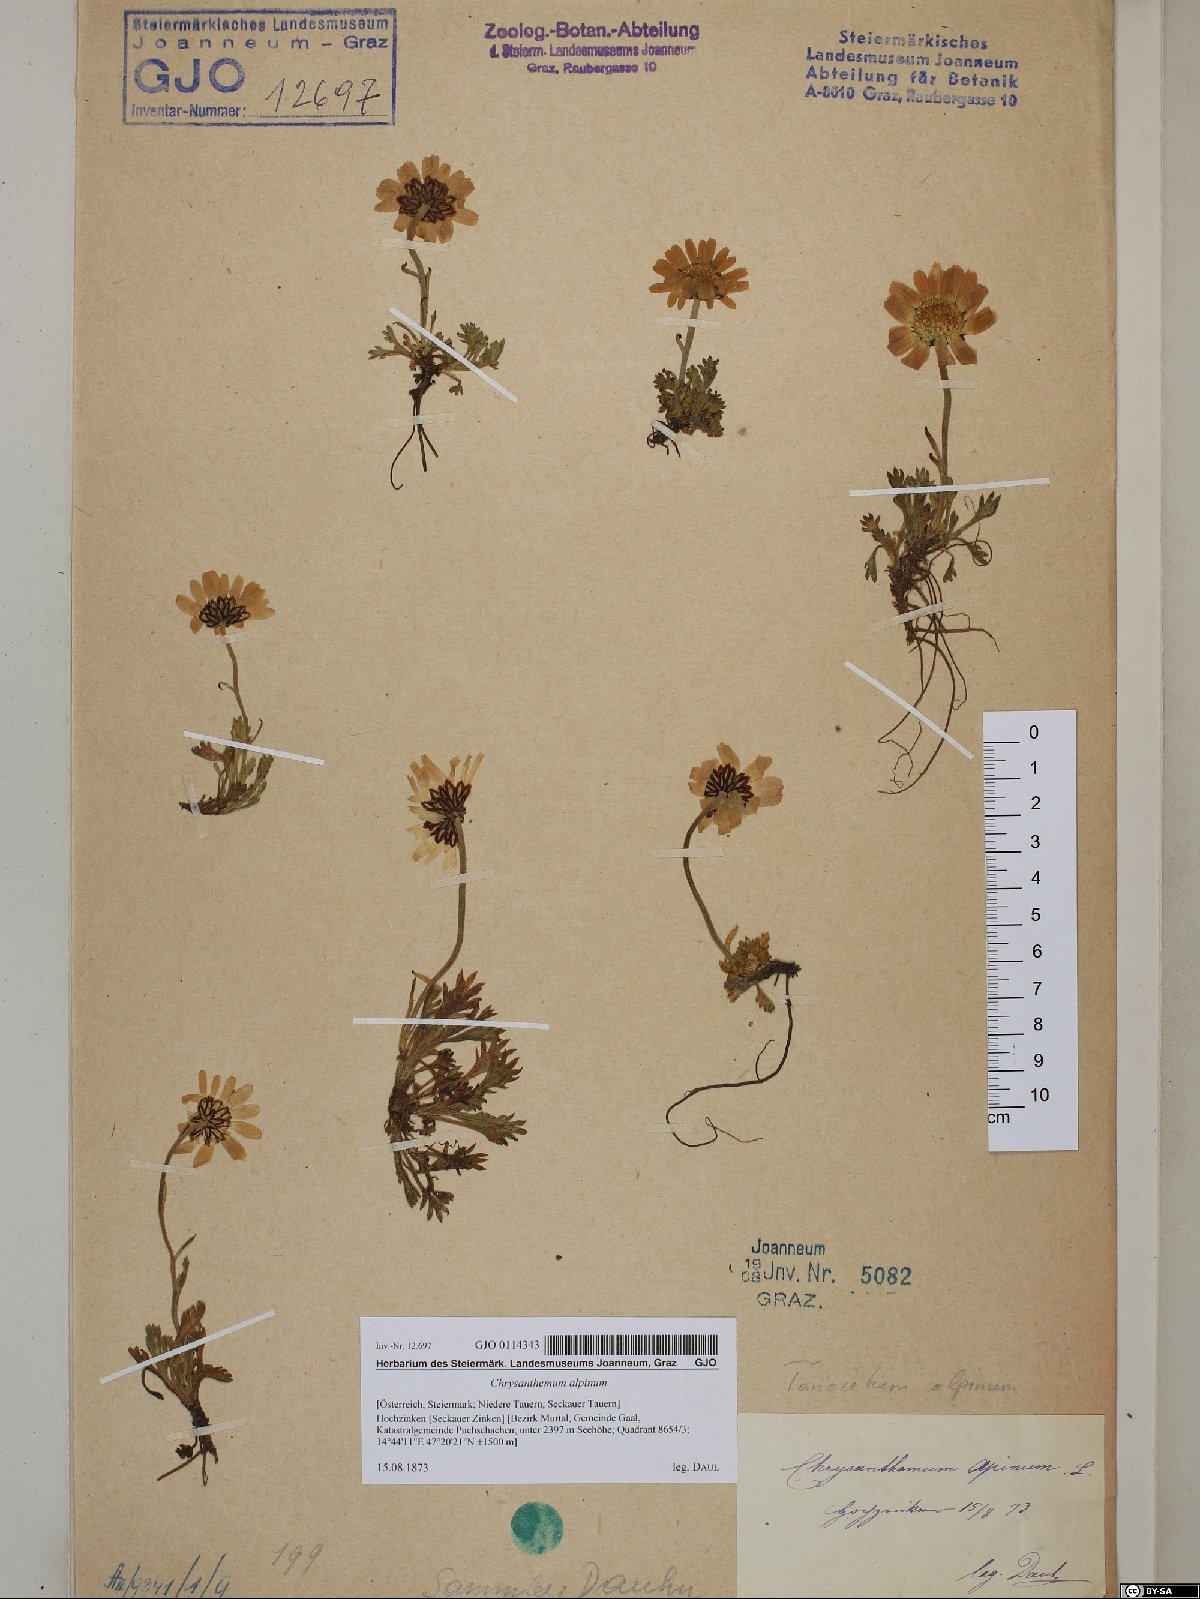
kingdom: Plantae
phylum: Tracheophyta
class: Magnoliopsida
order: Asterales
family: Asteraceae
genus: Leucanthemopsis
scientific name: Leucanthemopsis alpina
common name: Alpine moon daisy
